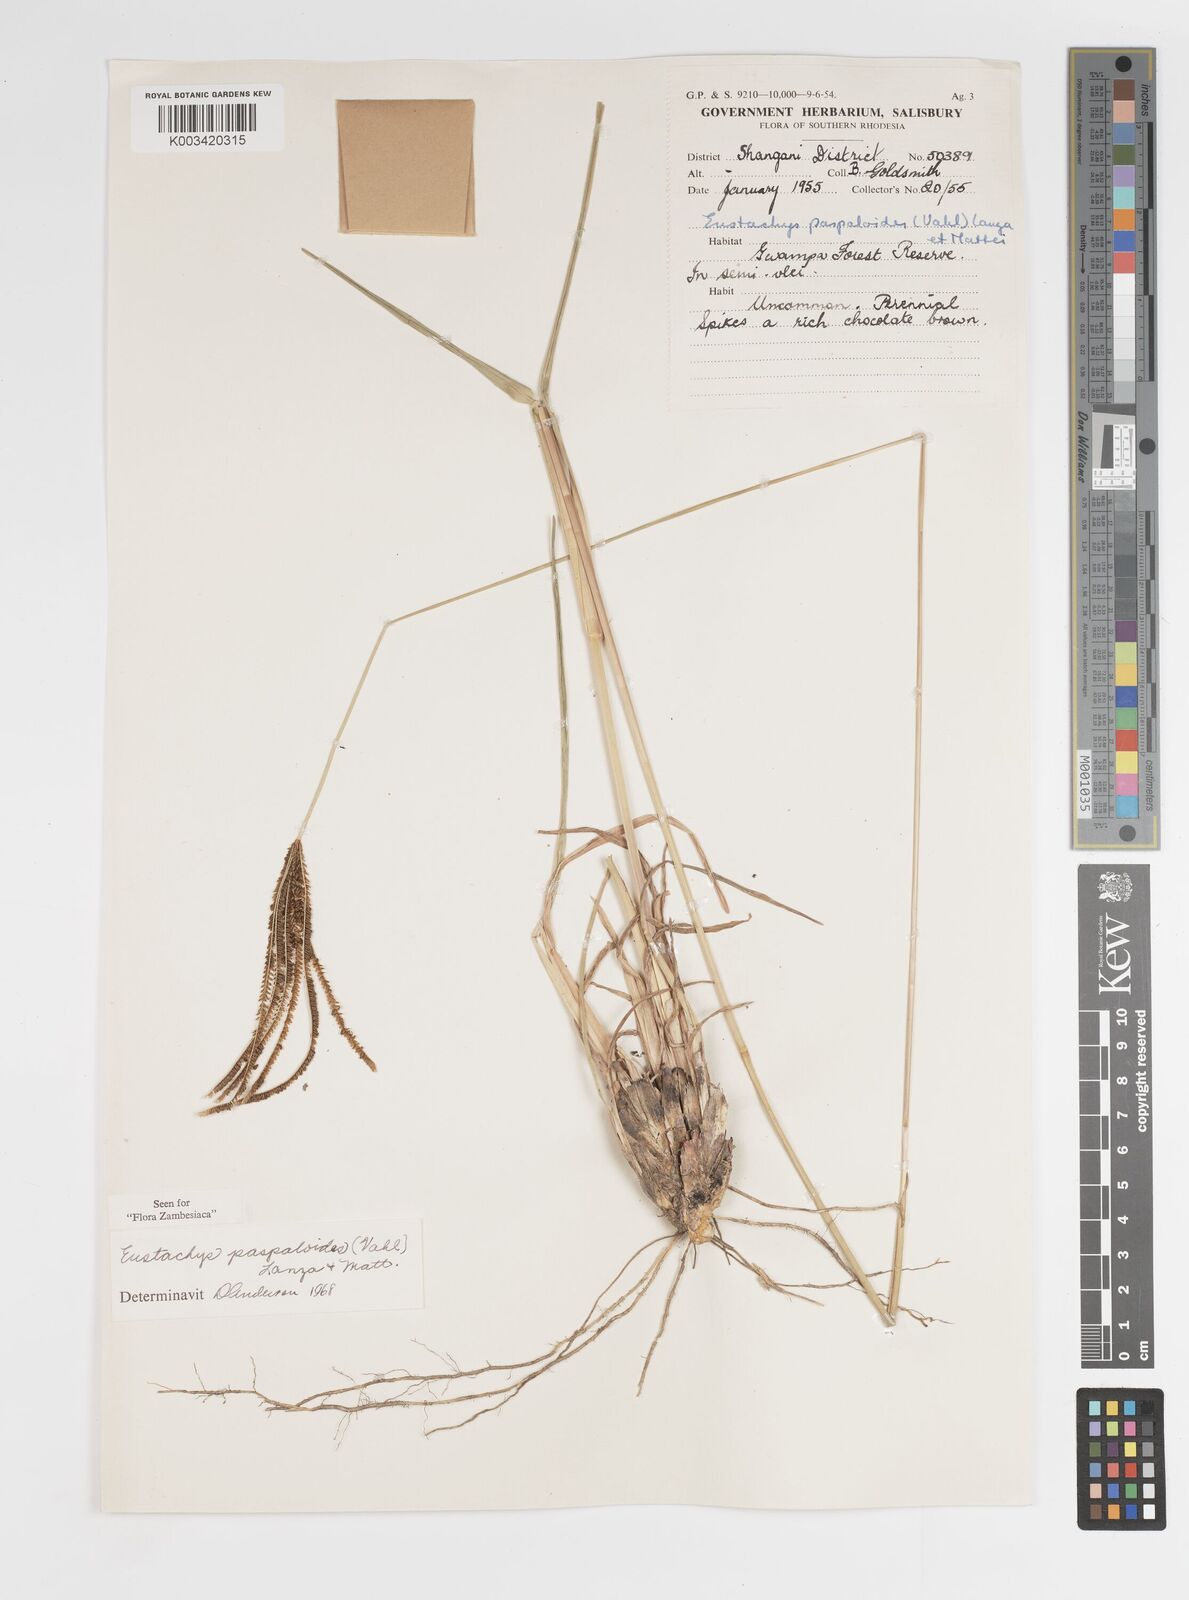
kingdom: Plantae
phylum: Tracheophyta
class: Liliopsida
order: Poales
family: Poaceae
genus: Eustachys
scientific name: Eustachys paspaloides
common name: Caribbean fingergrass
